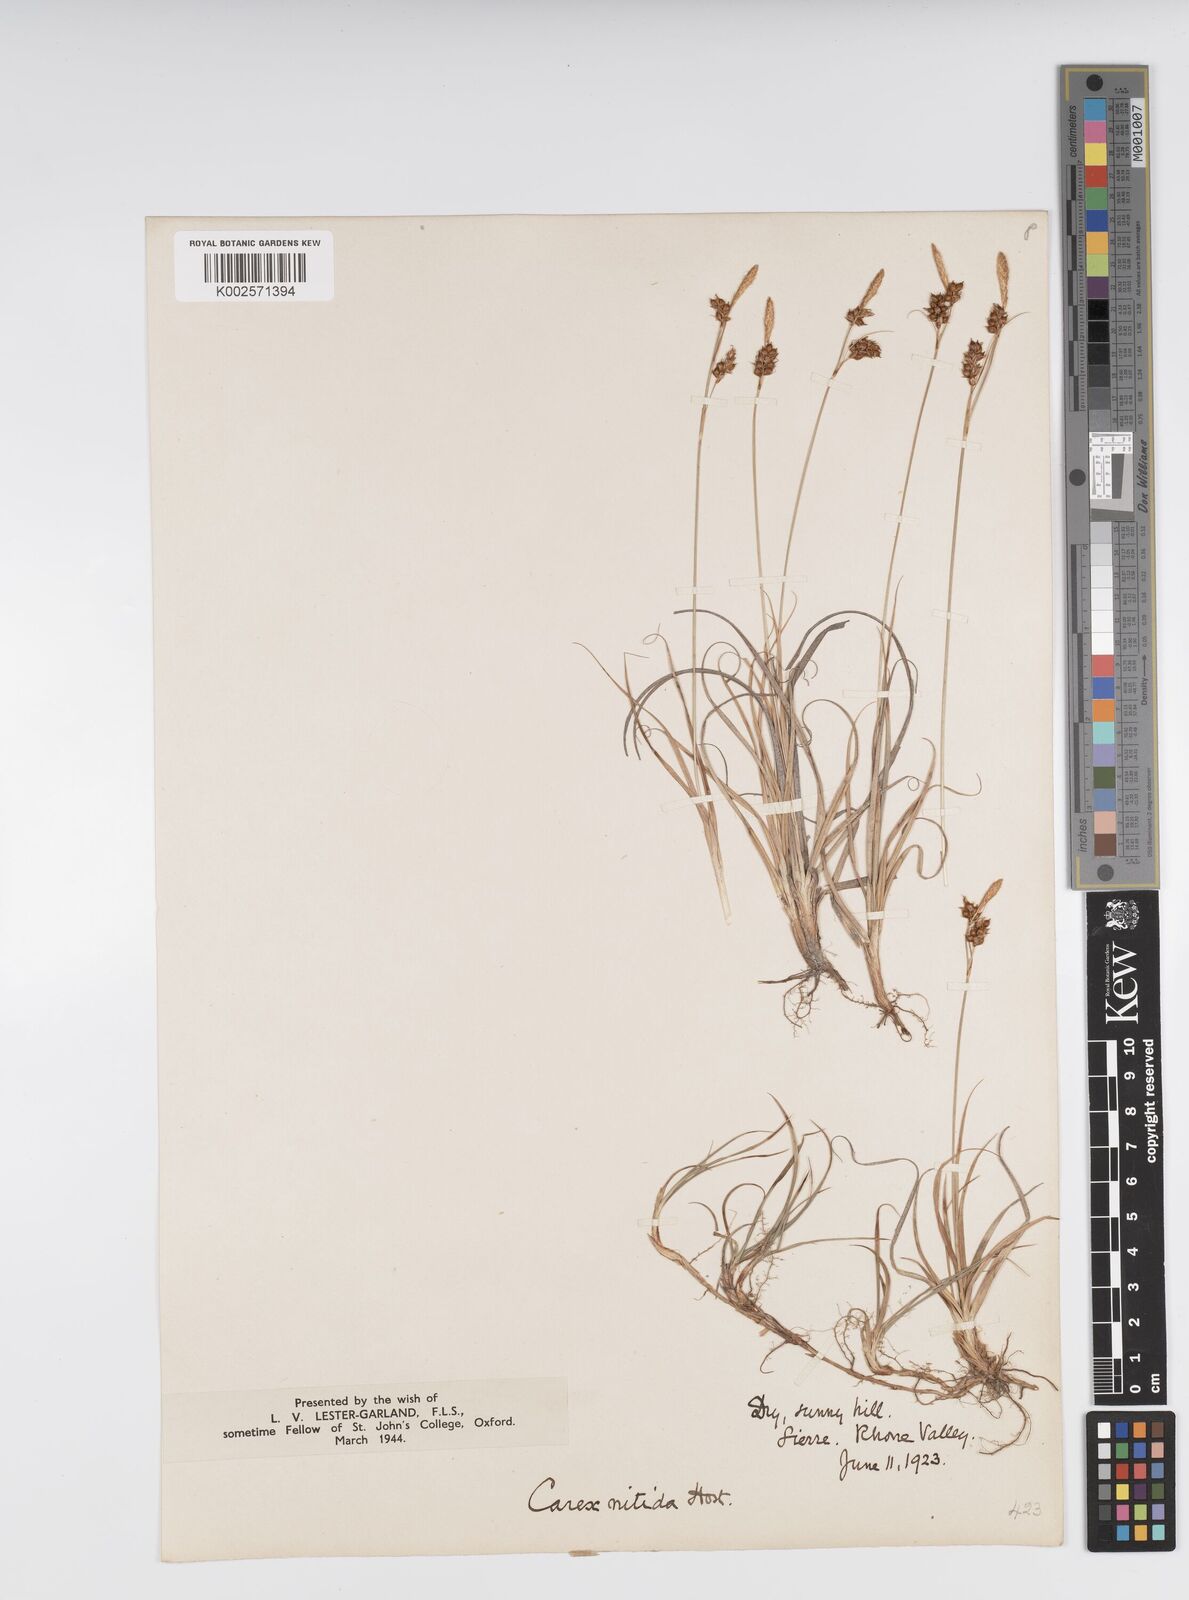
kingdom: Plantae
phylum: Tracheophyta
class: Liliopsida
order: Poales
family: Cyperaceae
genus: Carex
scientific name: Carex liparocarpos
